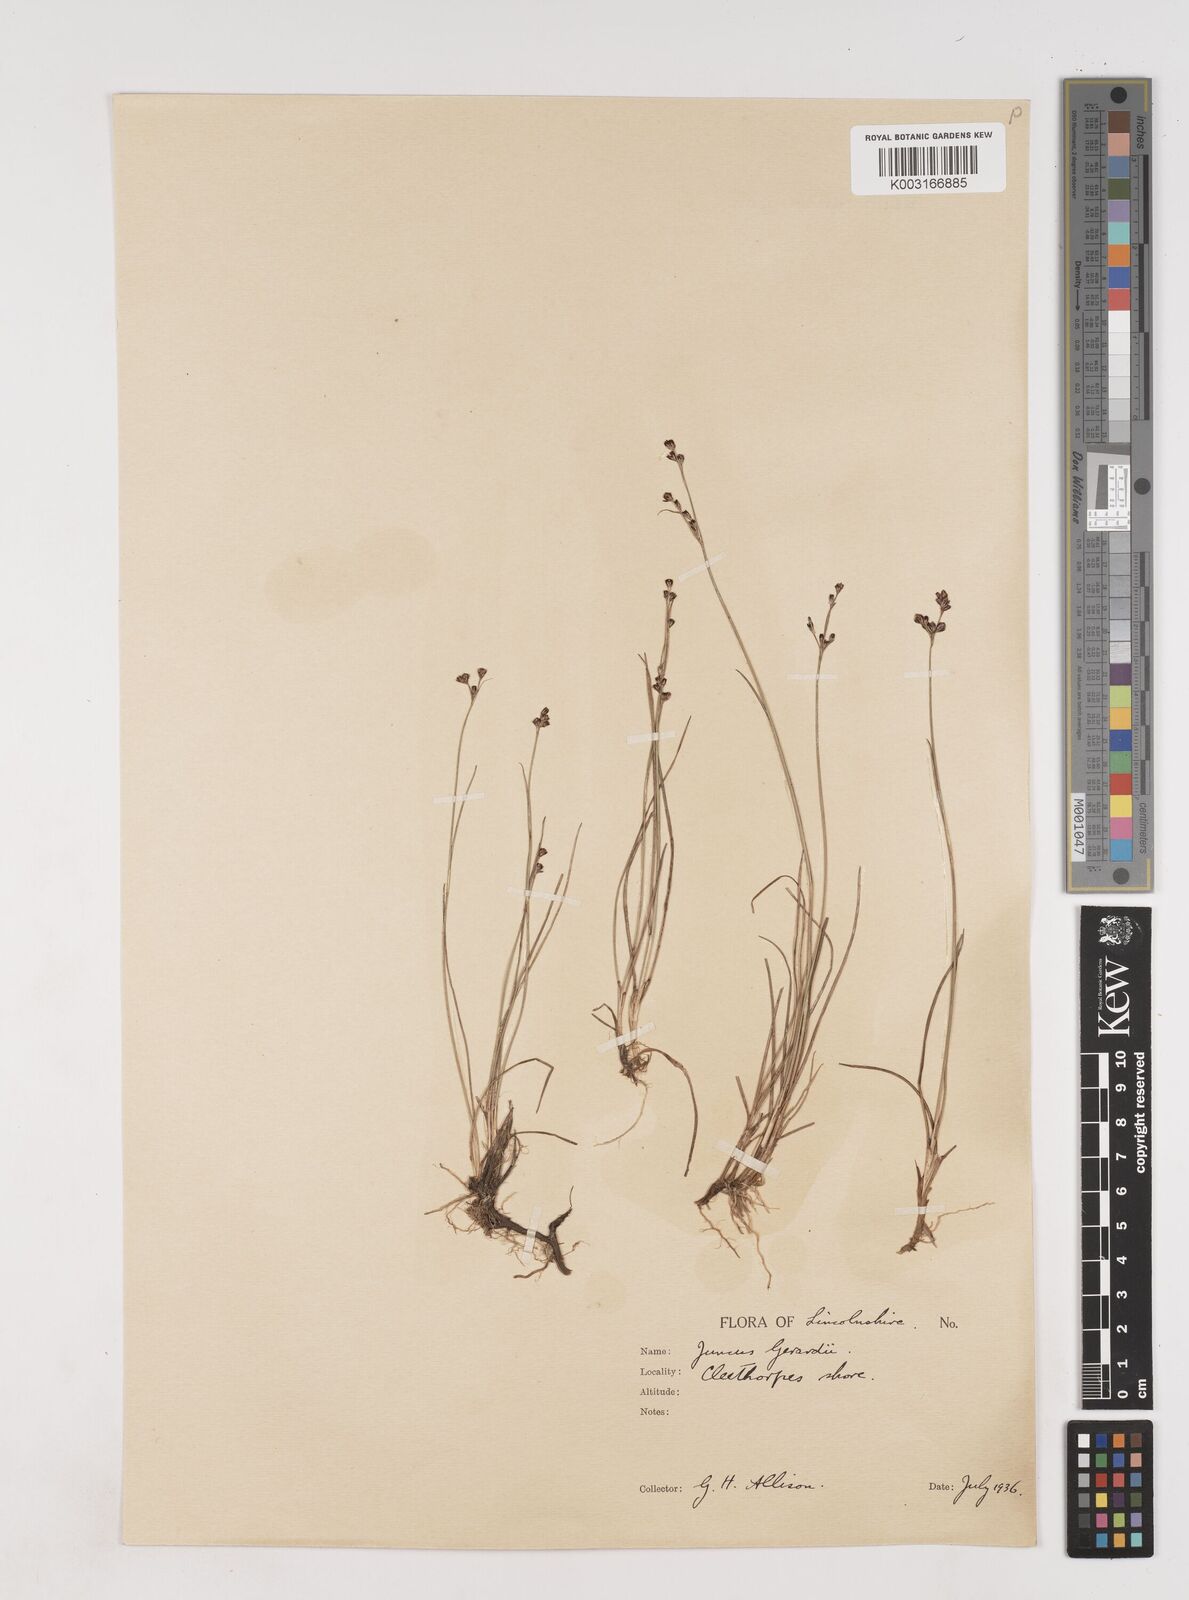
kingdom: Plantae
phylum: Tracheophyta
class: Liliopsida
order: Poales
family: Juncaceae
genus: Juncus
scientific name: Juncus gerardi
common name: Saltmarsh rush
